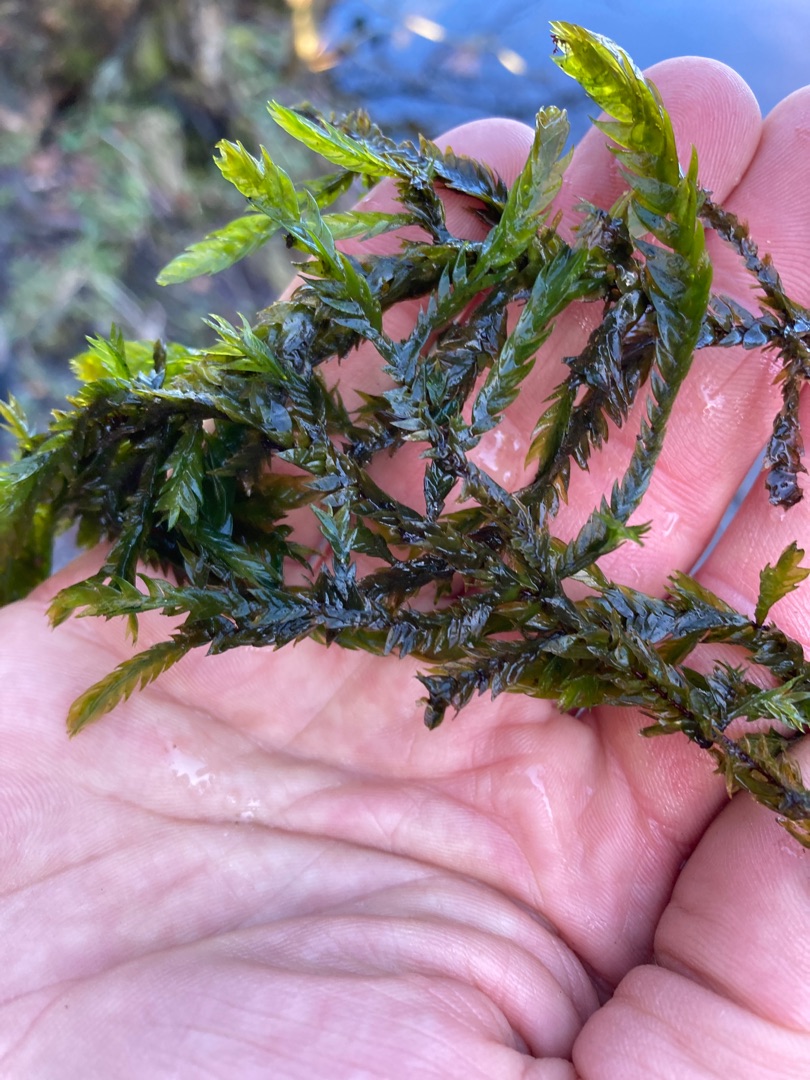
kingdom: Plantae
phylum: Bryophyta
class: Bryopsida
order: Hypnales
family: Fontinalaceae
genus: Fontinalis
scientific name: Fontinalis antipyretica
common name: Stor kildemos
